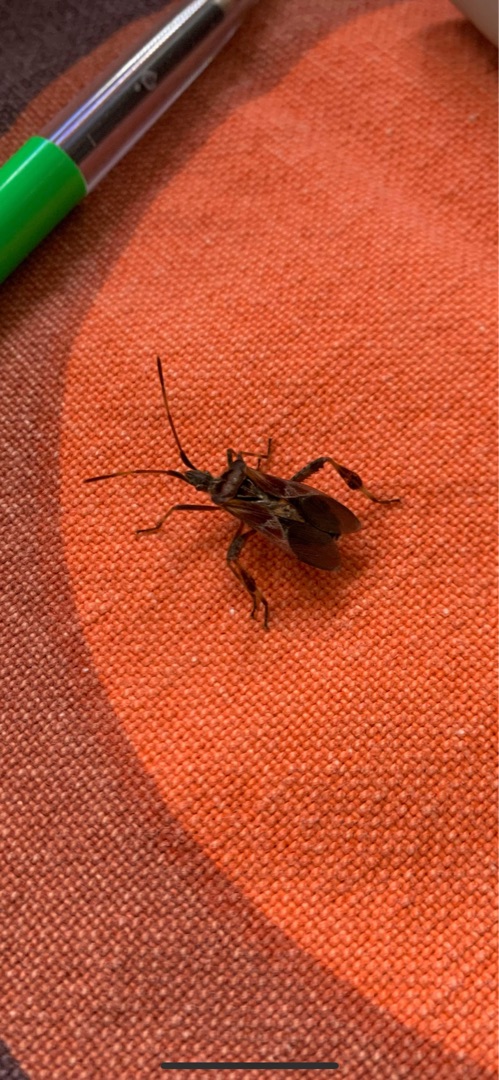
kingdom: Animalia
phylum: Arthropoda
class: Insecta
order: Hemiptera
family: Coreidae
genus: Leptoglossus
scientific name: Leptoglossus occidentalis
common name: Amerikansk fyrretæge
